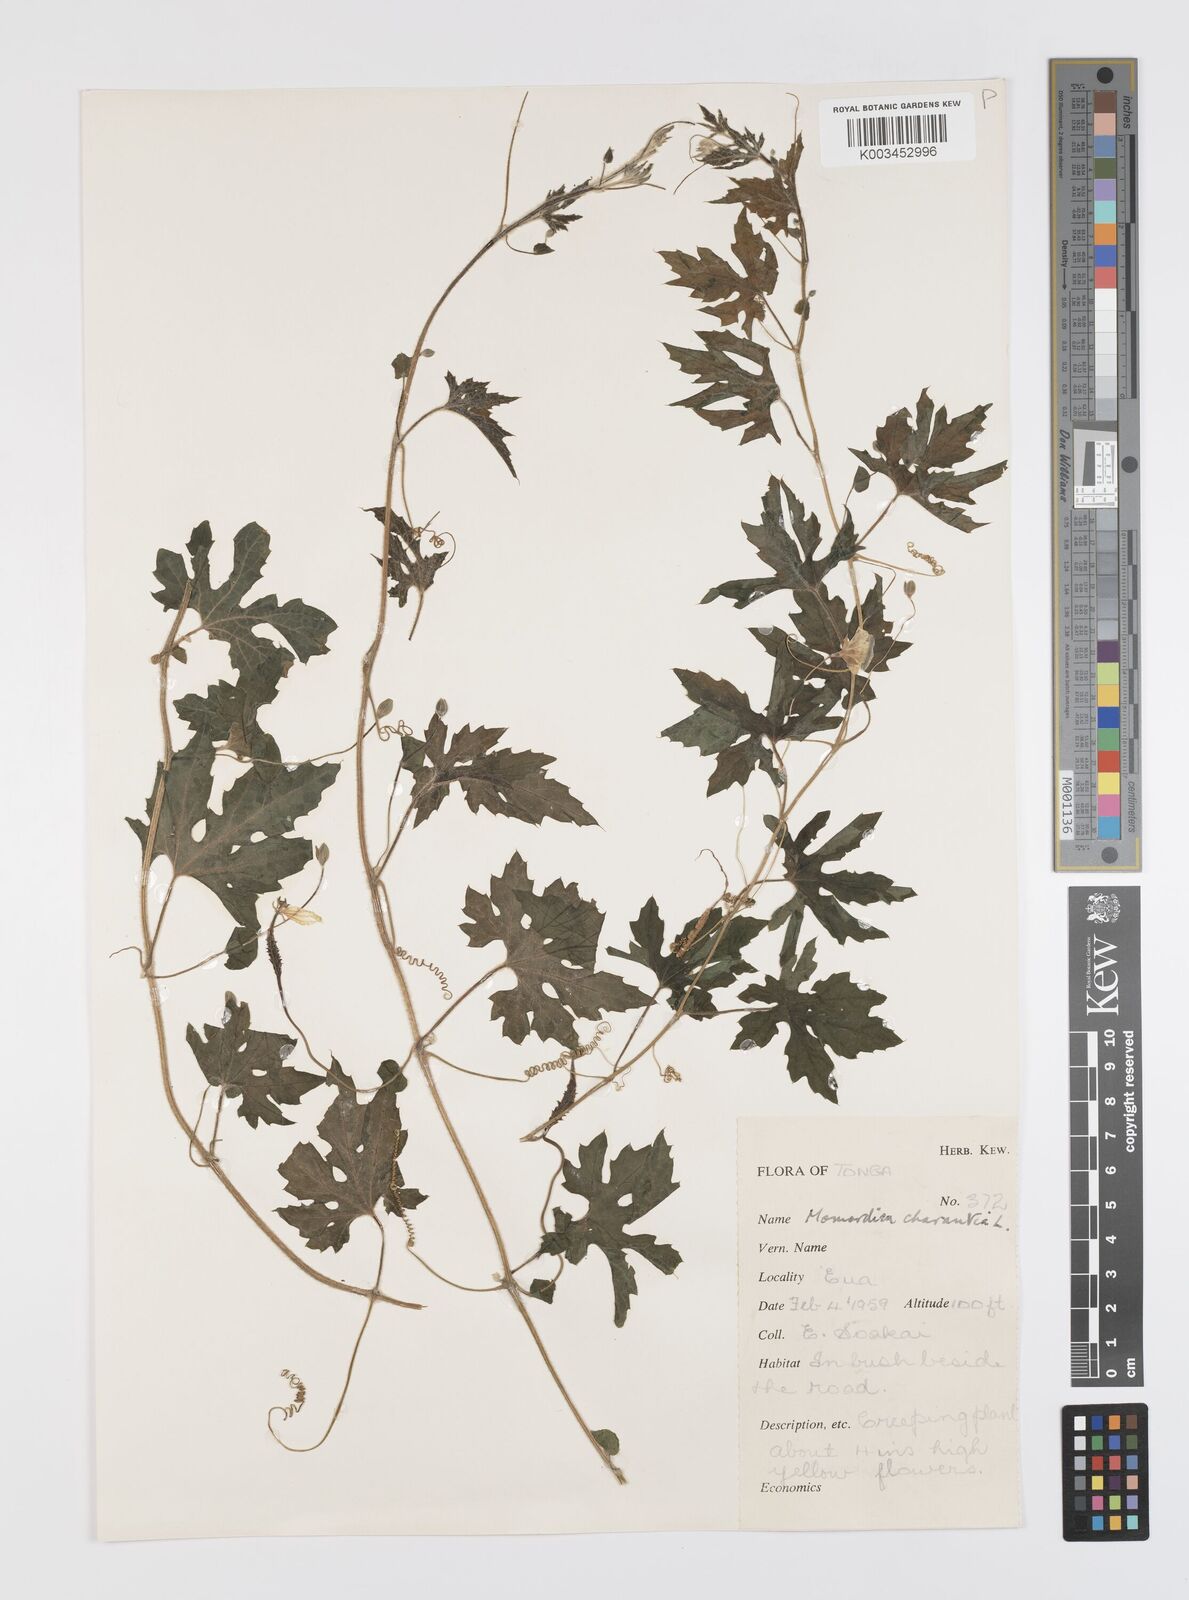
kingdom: Plantae
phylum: Tracheophyta
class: Magnoliopsida
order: Cucurbitales
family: Cucurbitaceae
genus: Momordica
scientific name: Momordica charantia
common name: Balsampear
